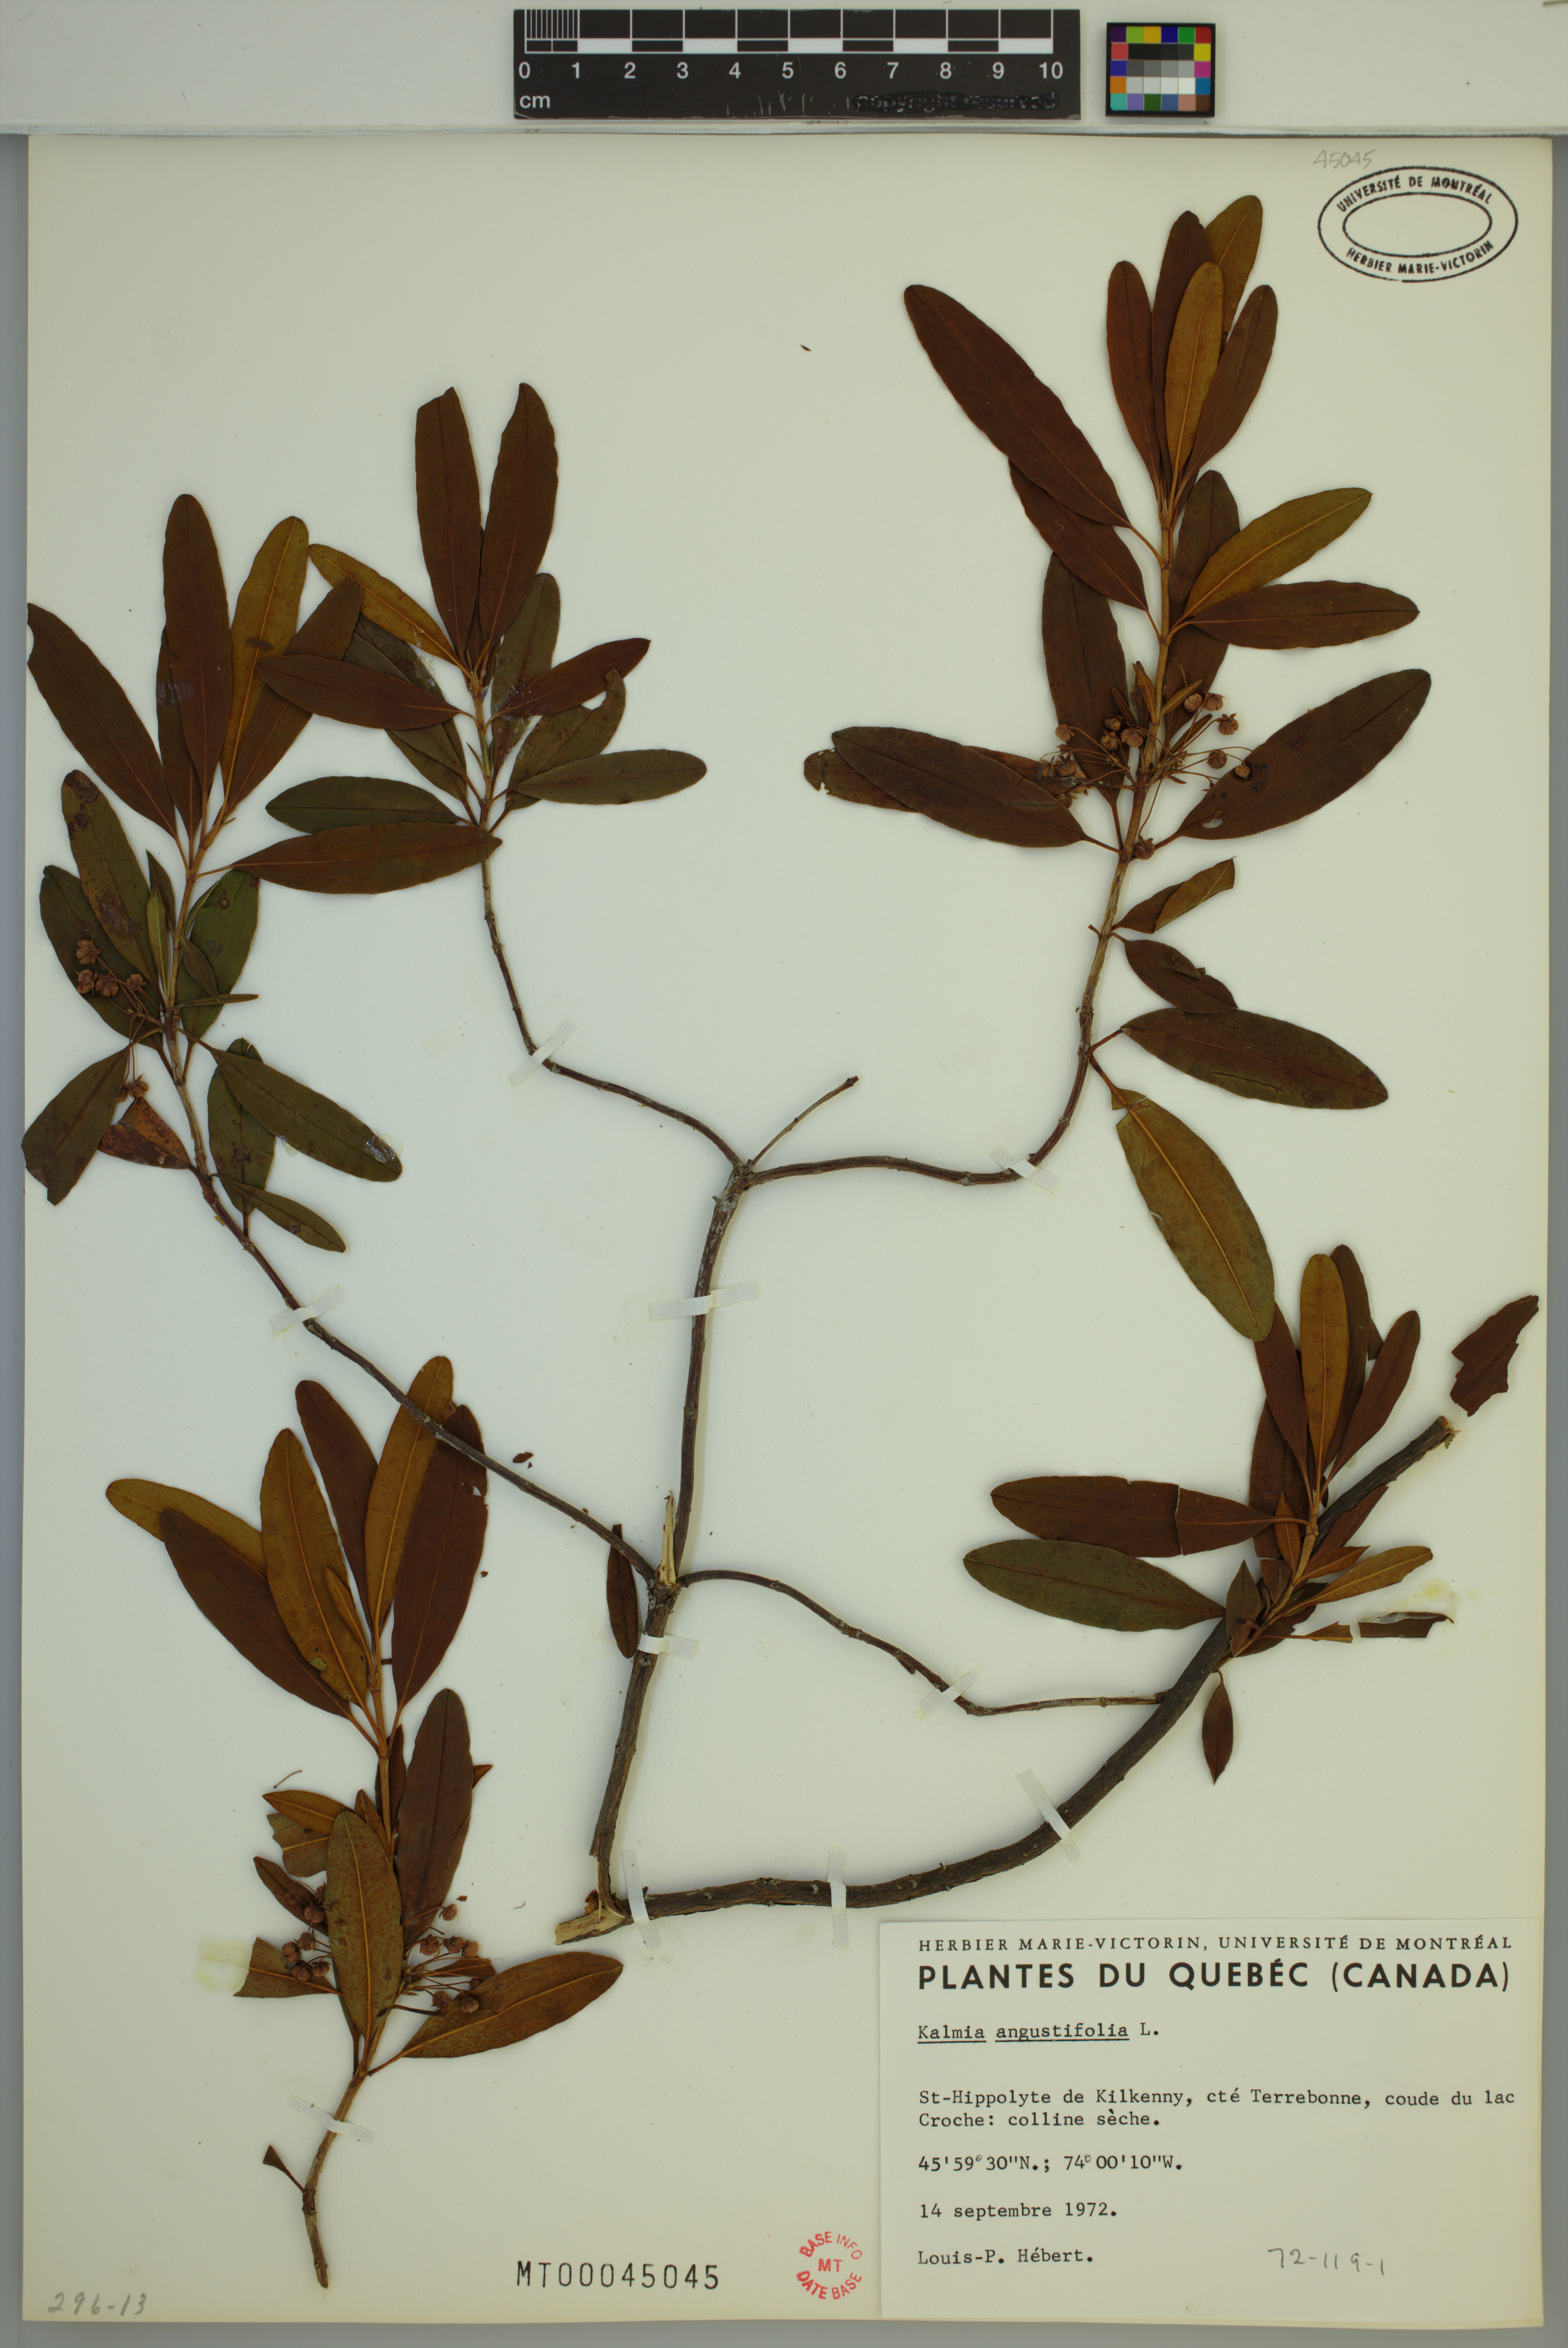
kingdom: Plantae
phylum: Tracheophyta
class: Magnoliopsida
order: Ericales
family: Ericaceae
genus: Kalmia
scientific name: Kalmia angustifolia
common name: Sheep-laurel
